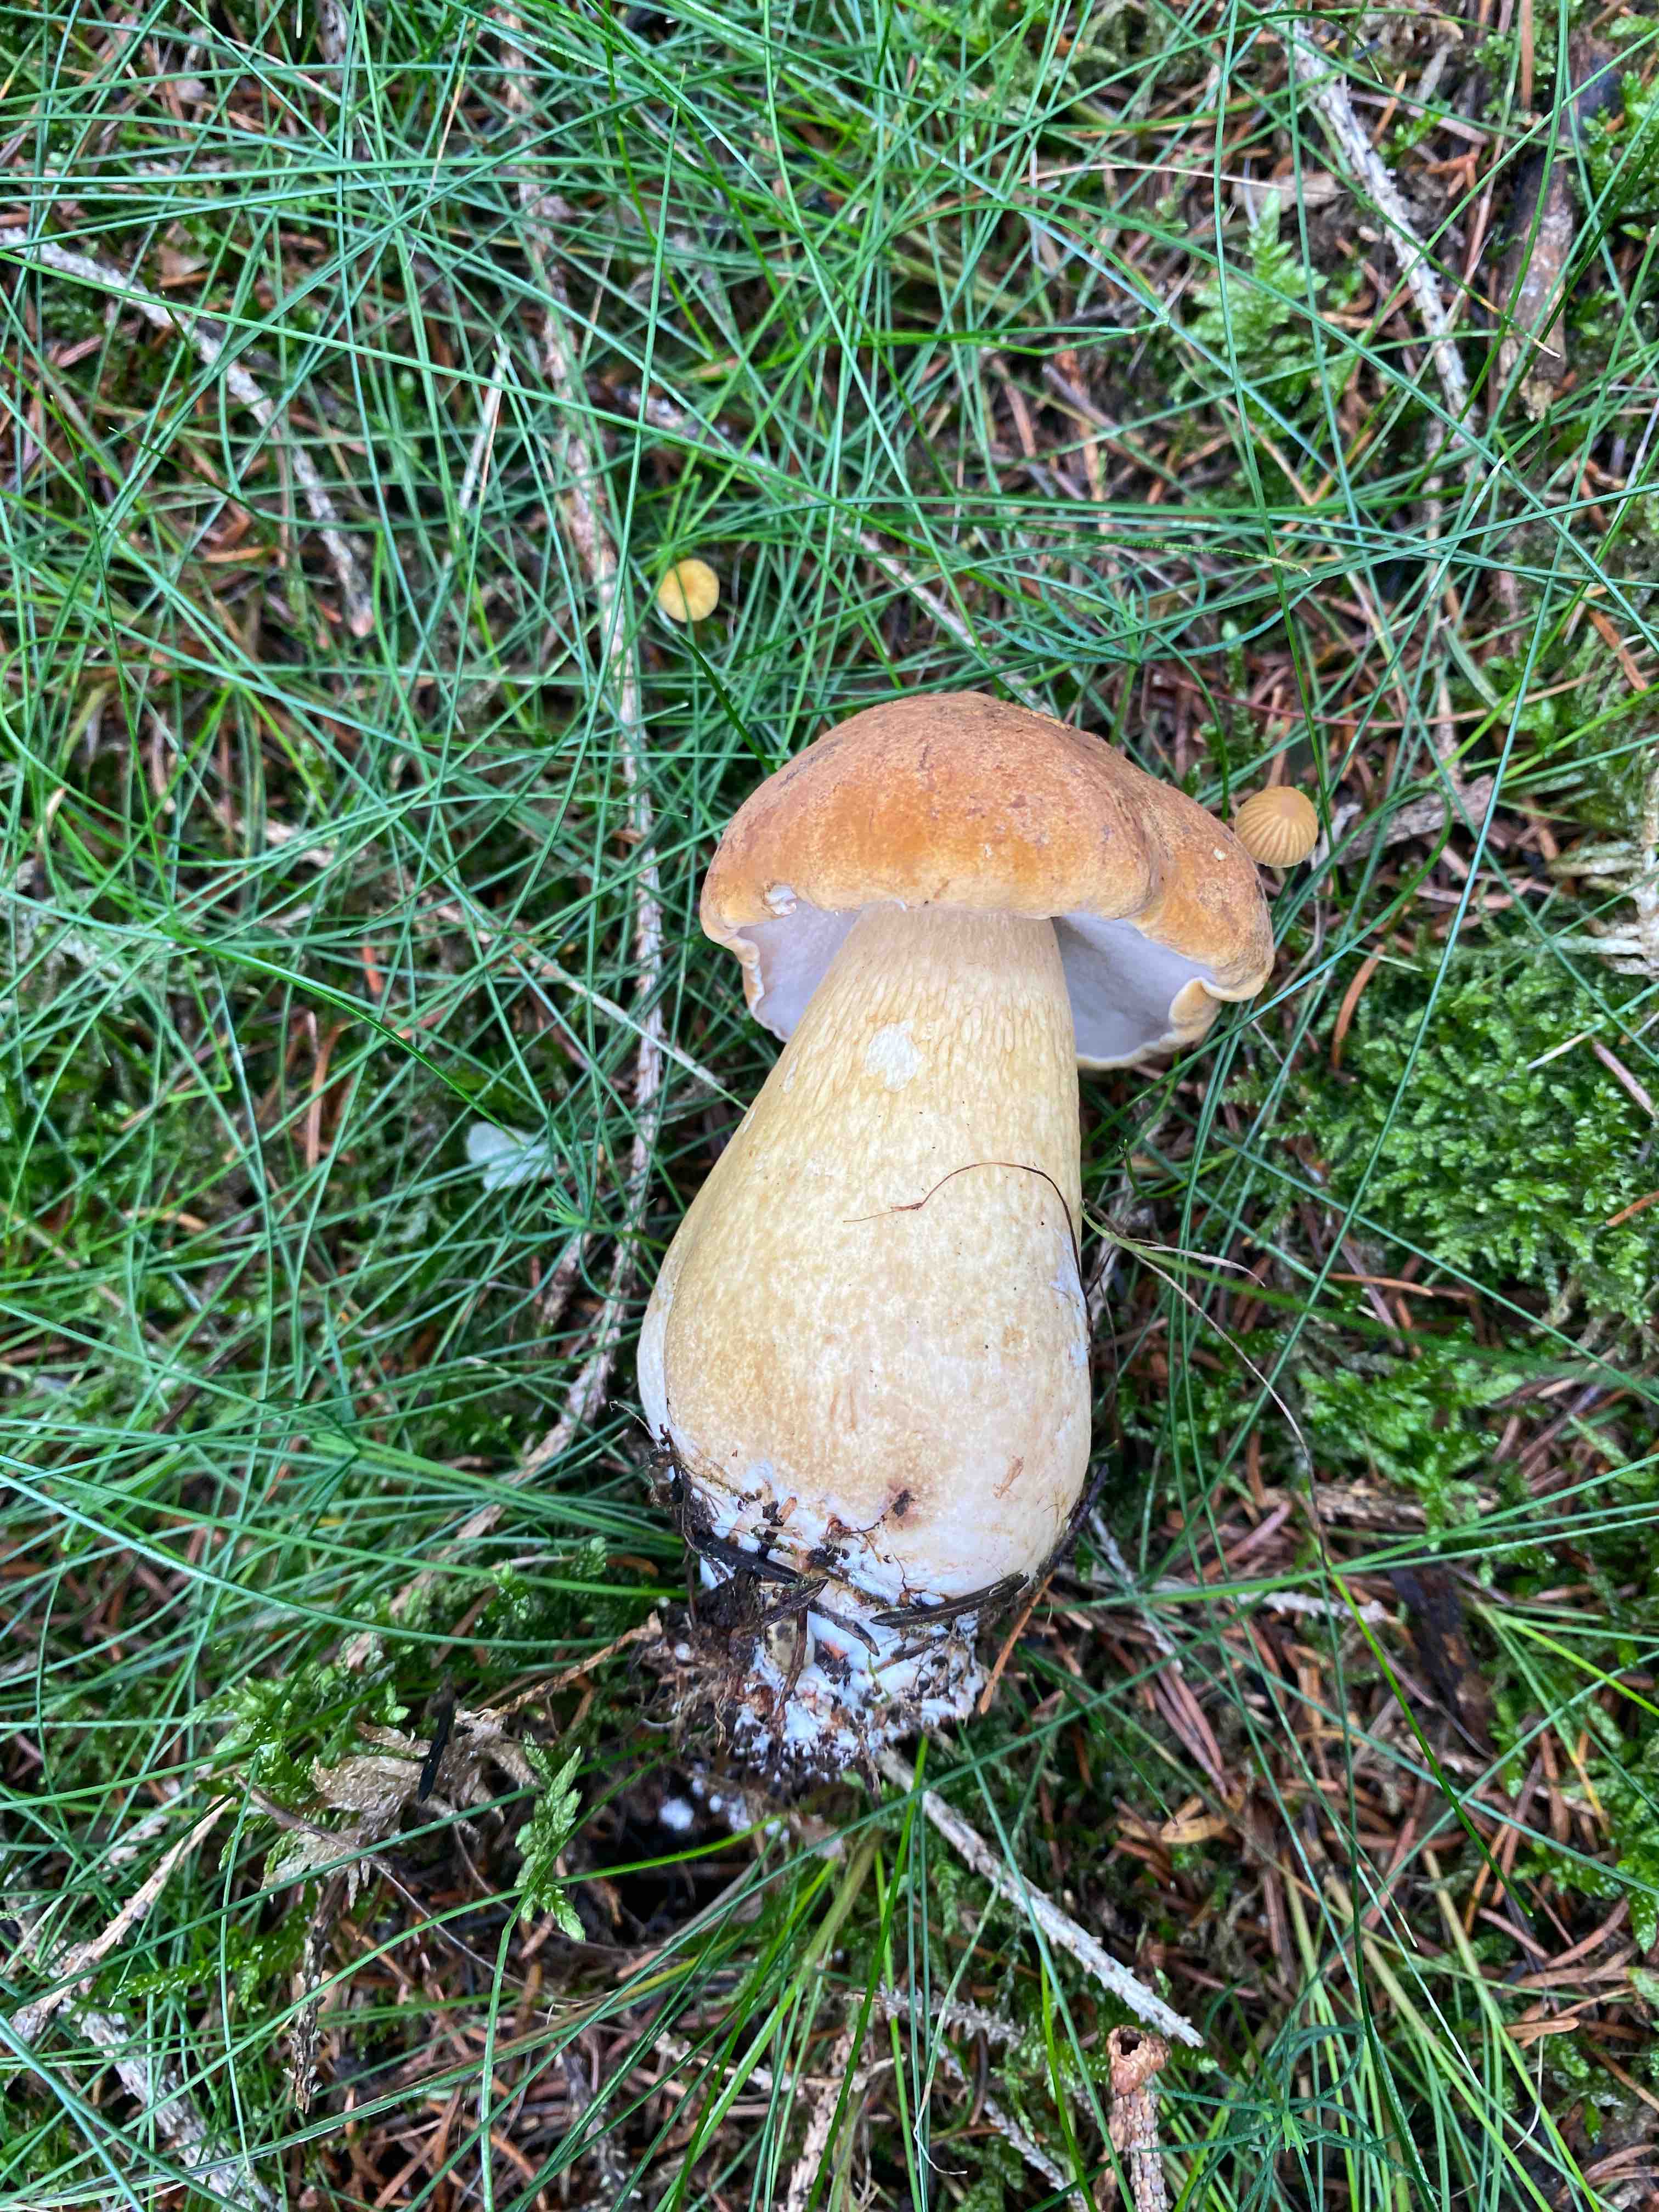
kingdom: Fungi
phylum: Basidiomycota
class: Agaricomycetes
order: Boletales
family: Boletaceae
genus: Tylopilus
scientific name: Tylopilus felleus
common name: galderørhat
